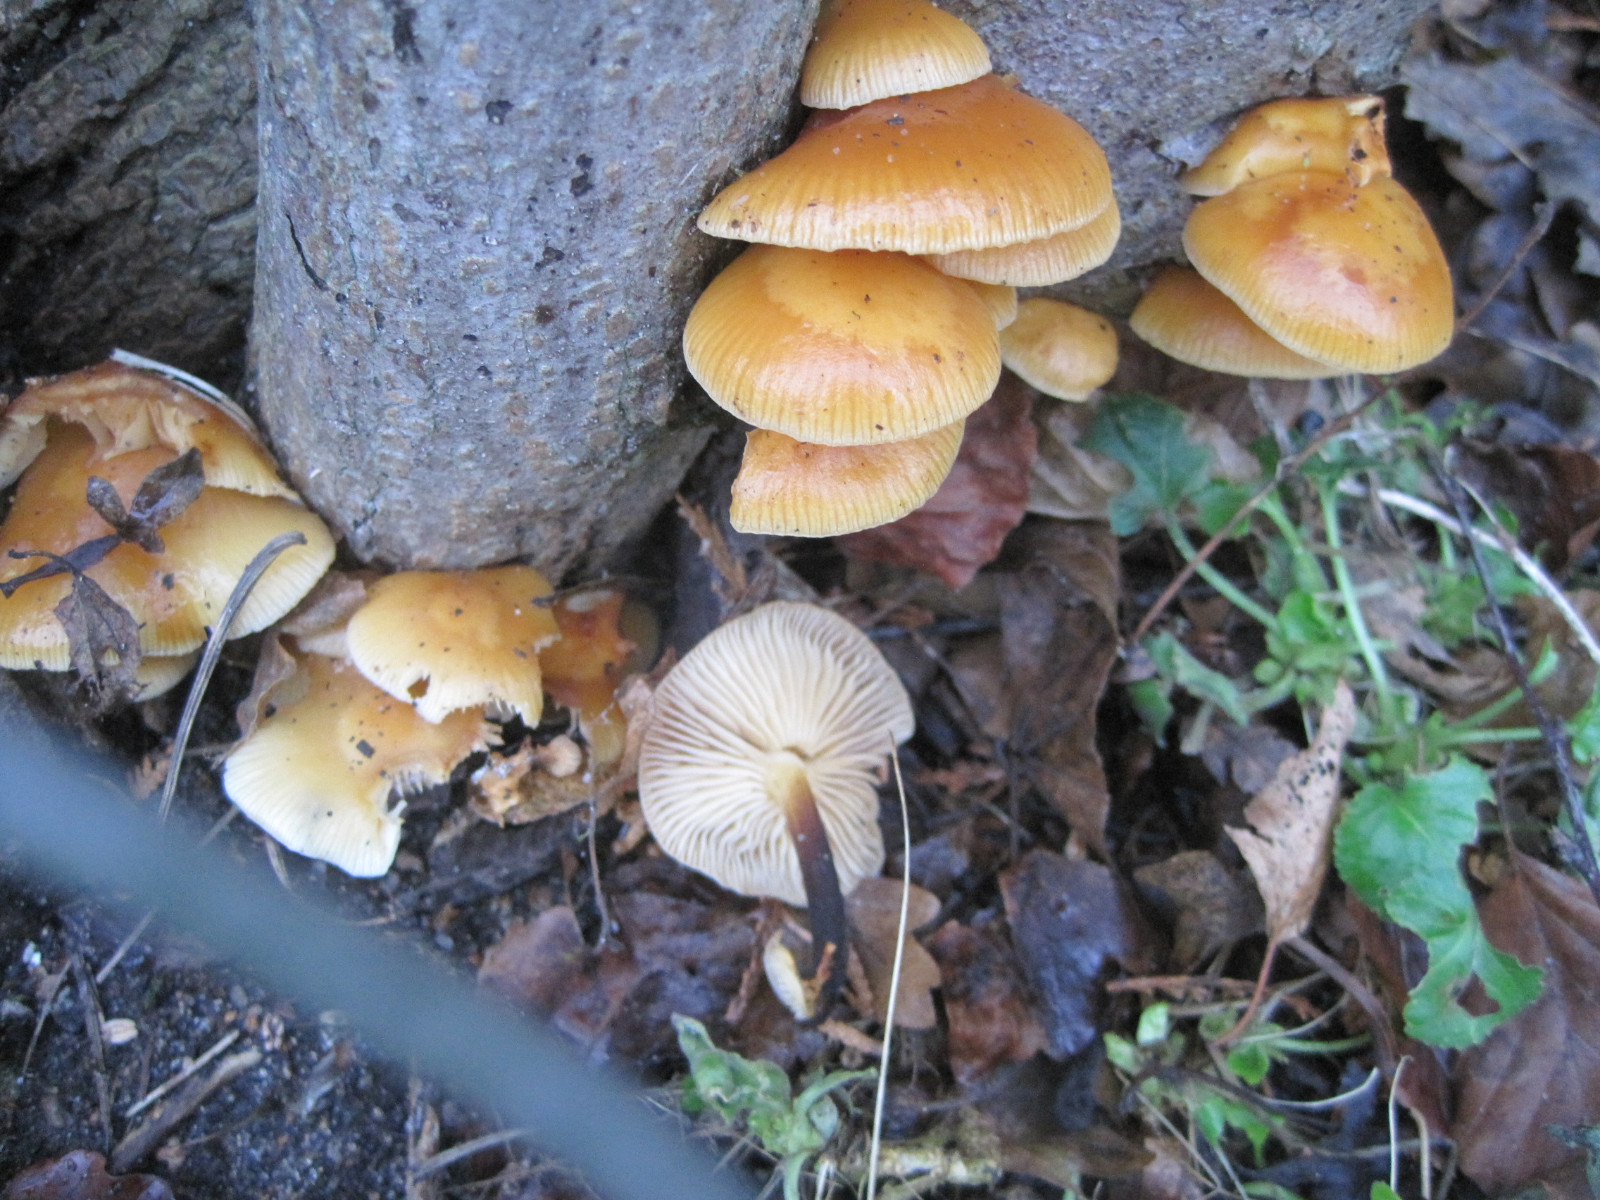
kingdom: Fungi
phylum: Basidiomycota
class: Agaricomycetes
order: Agaricales
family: Physalacriaceae
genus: Flammulina
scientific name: Flammulina velutipes
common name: gul fløjlsfod
